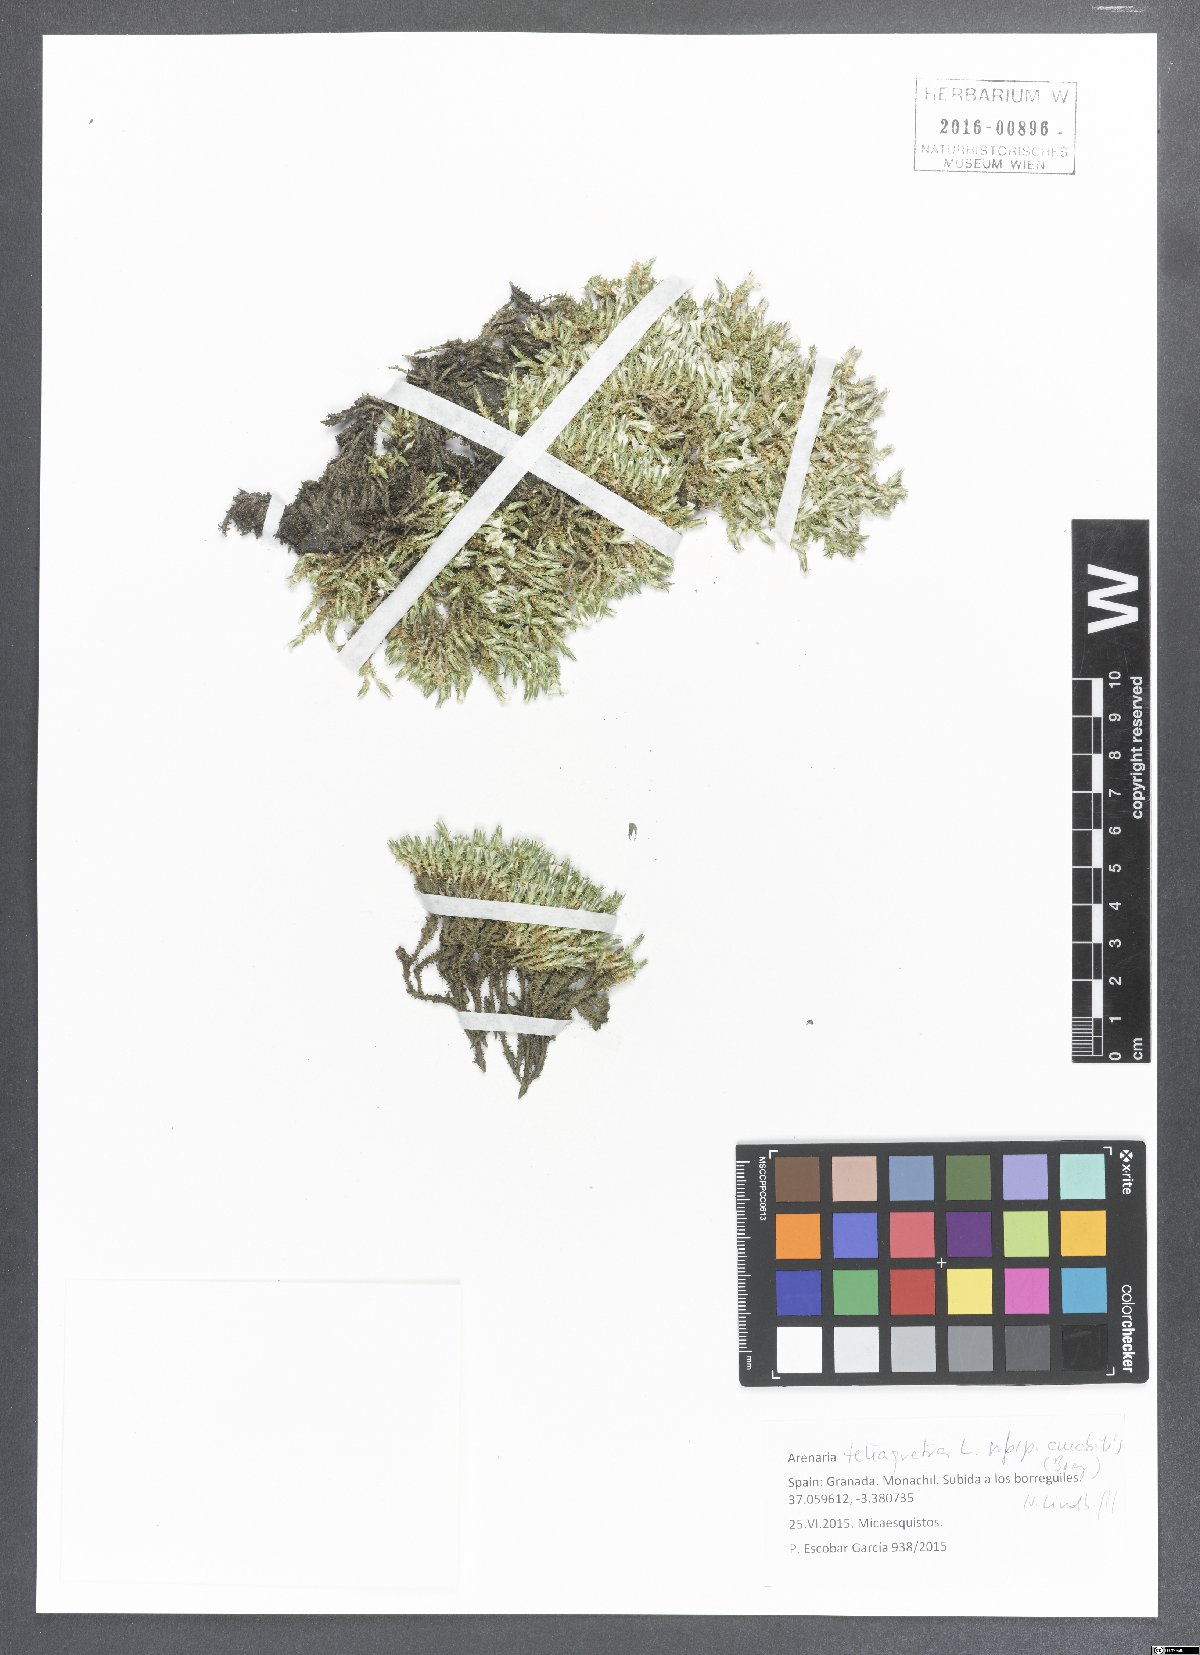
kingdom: Plantae
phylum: Tracheophyta
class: Magnoliopsida
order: Caryophyllales
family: Caryophyllaceae
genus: Arenaria
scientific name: Arenaria tetraquetra
